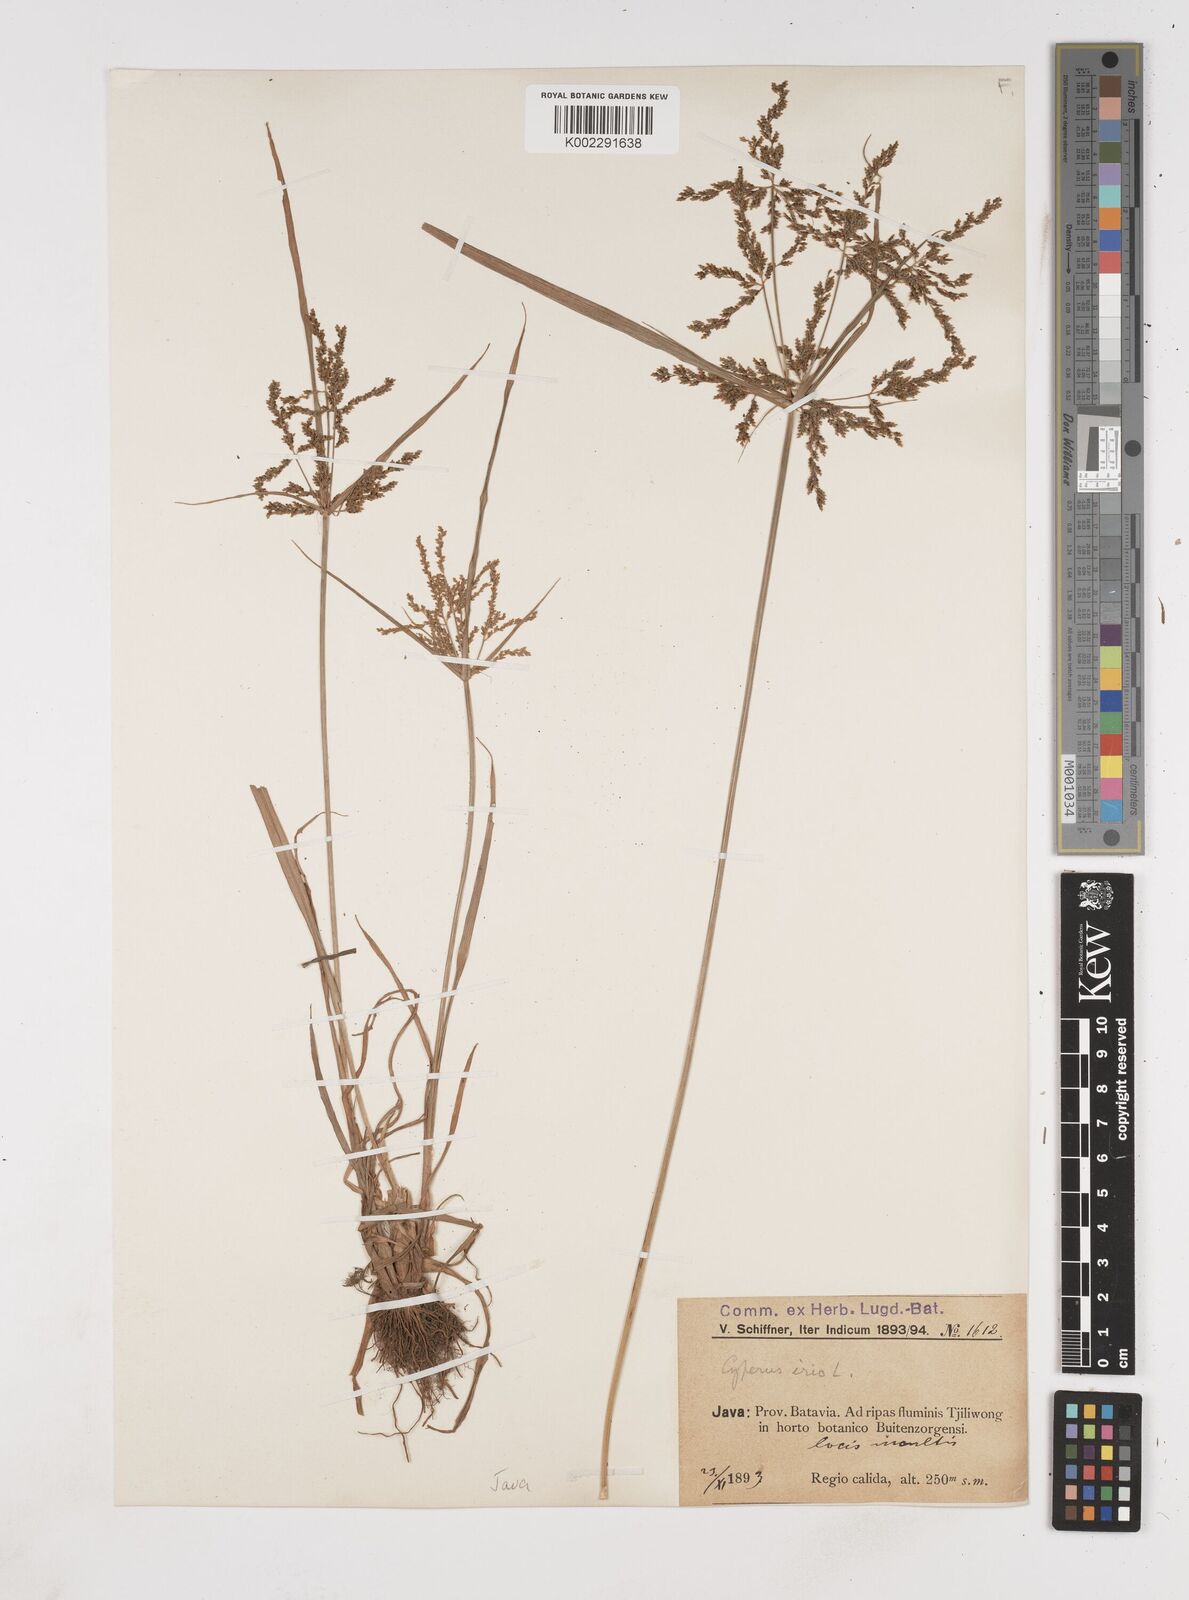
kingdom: Plantae
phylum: Tracheophyta
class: Liliopsida
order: Poales
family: Cyperaceae
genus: Cyperus
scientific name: Cyperus iria
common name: Ricefield flatsedge
